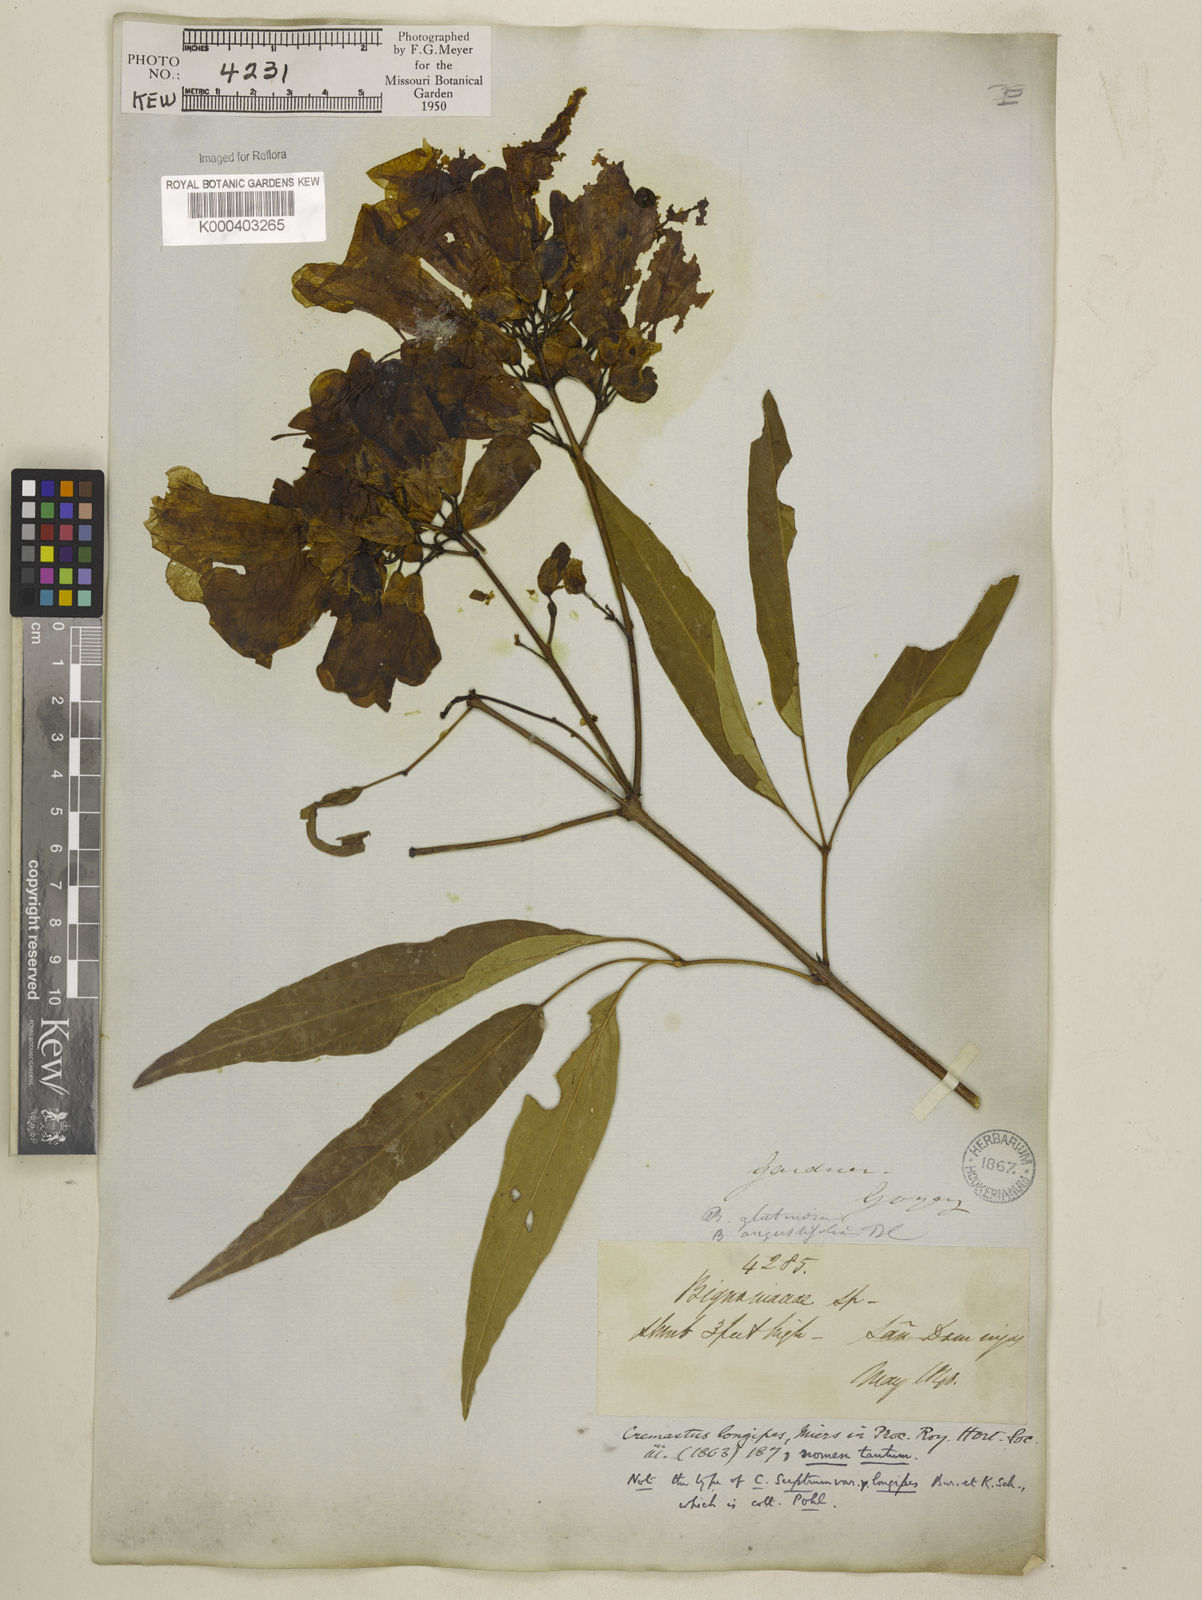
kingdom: Plantae
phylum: Tracheophyta
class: Magnoliopsida
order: Lamiales
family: Bignoniaceae
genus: Cuspidaria
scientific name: Cuspidaria sceptrum
